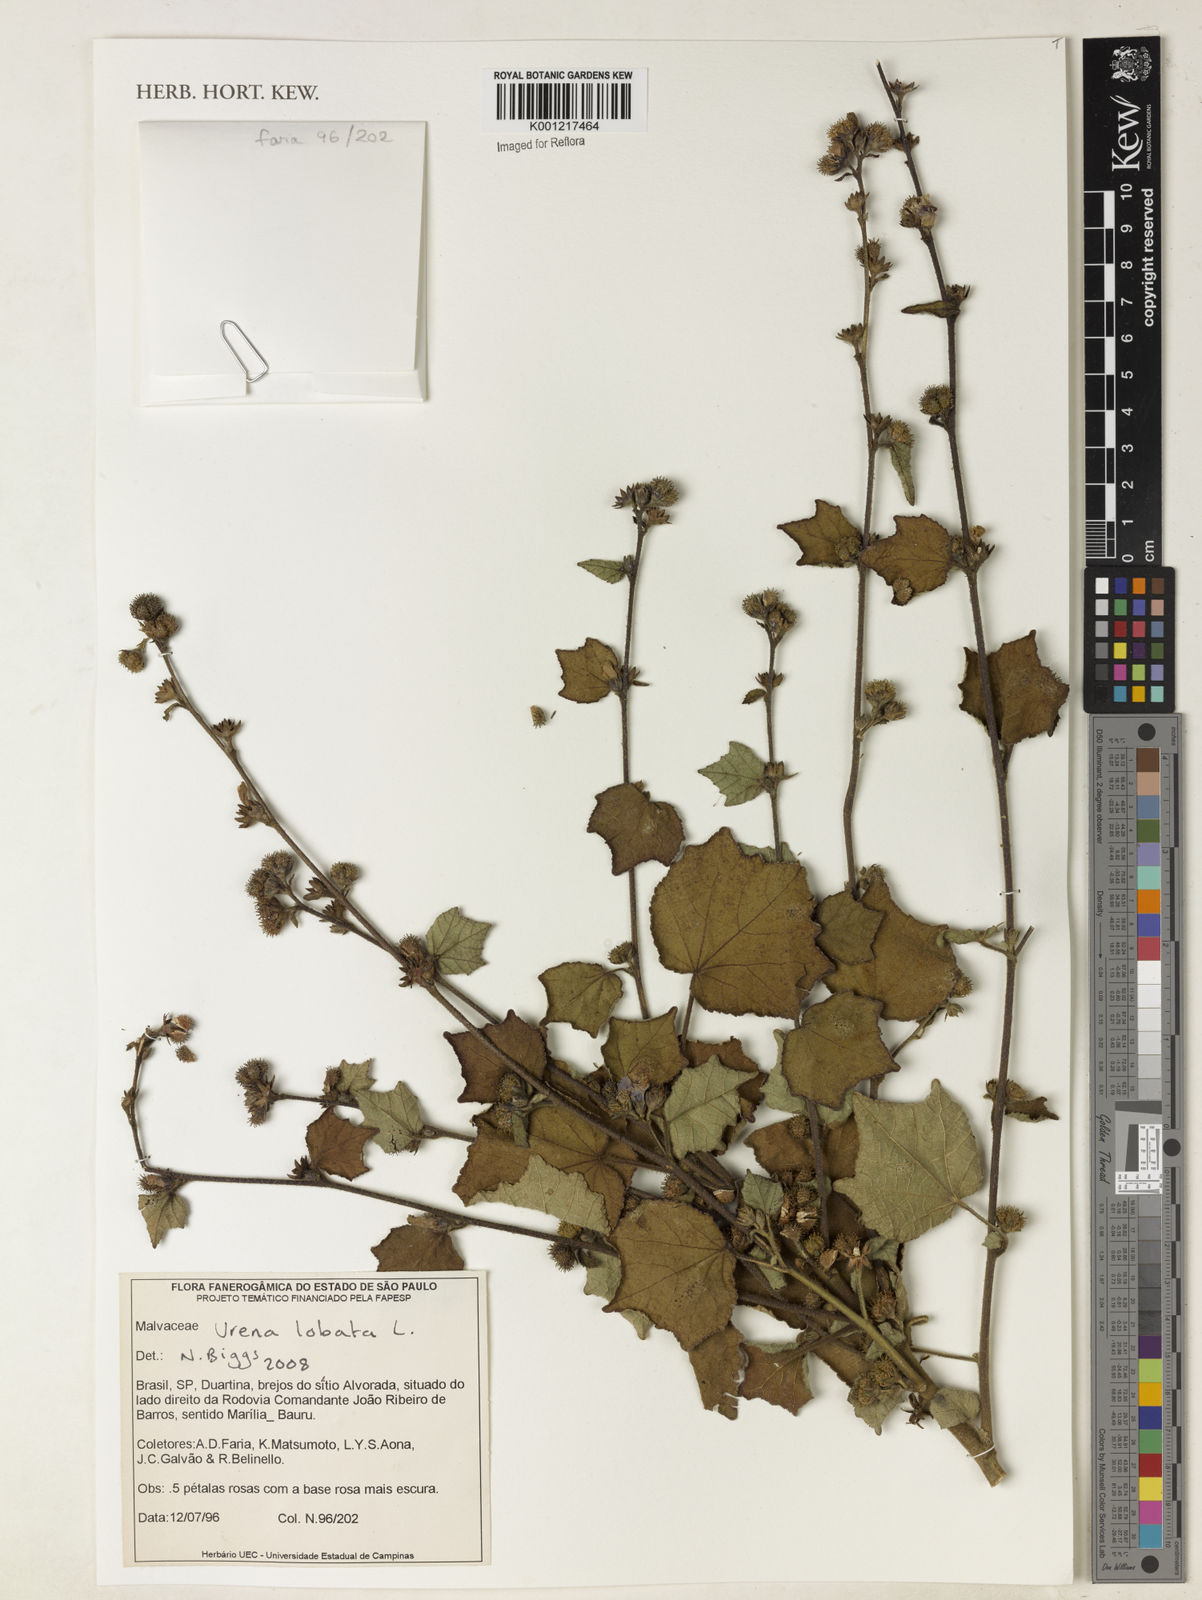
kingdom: Plantae
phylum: Tracheophyta
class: Magnoliopsida
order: Malvales
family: Malvaceae
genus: Urena
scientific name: Urena lobata
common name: Caesarweed
